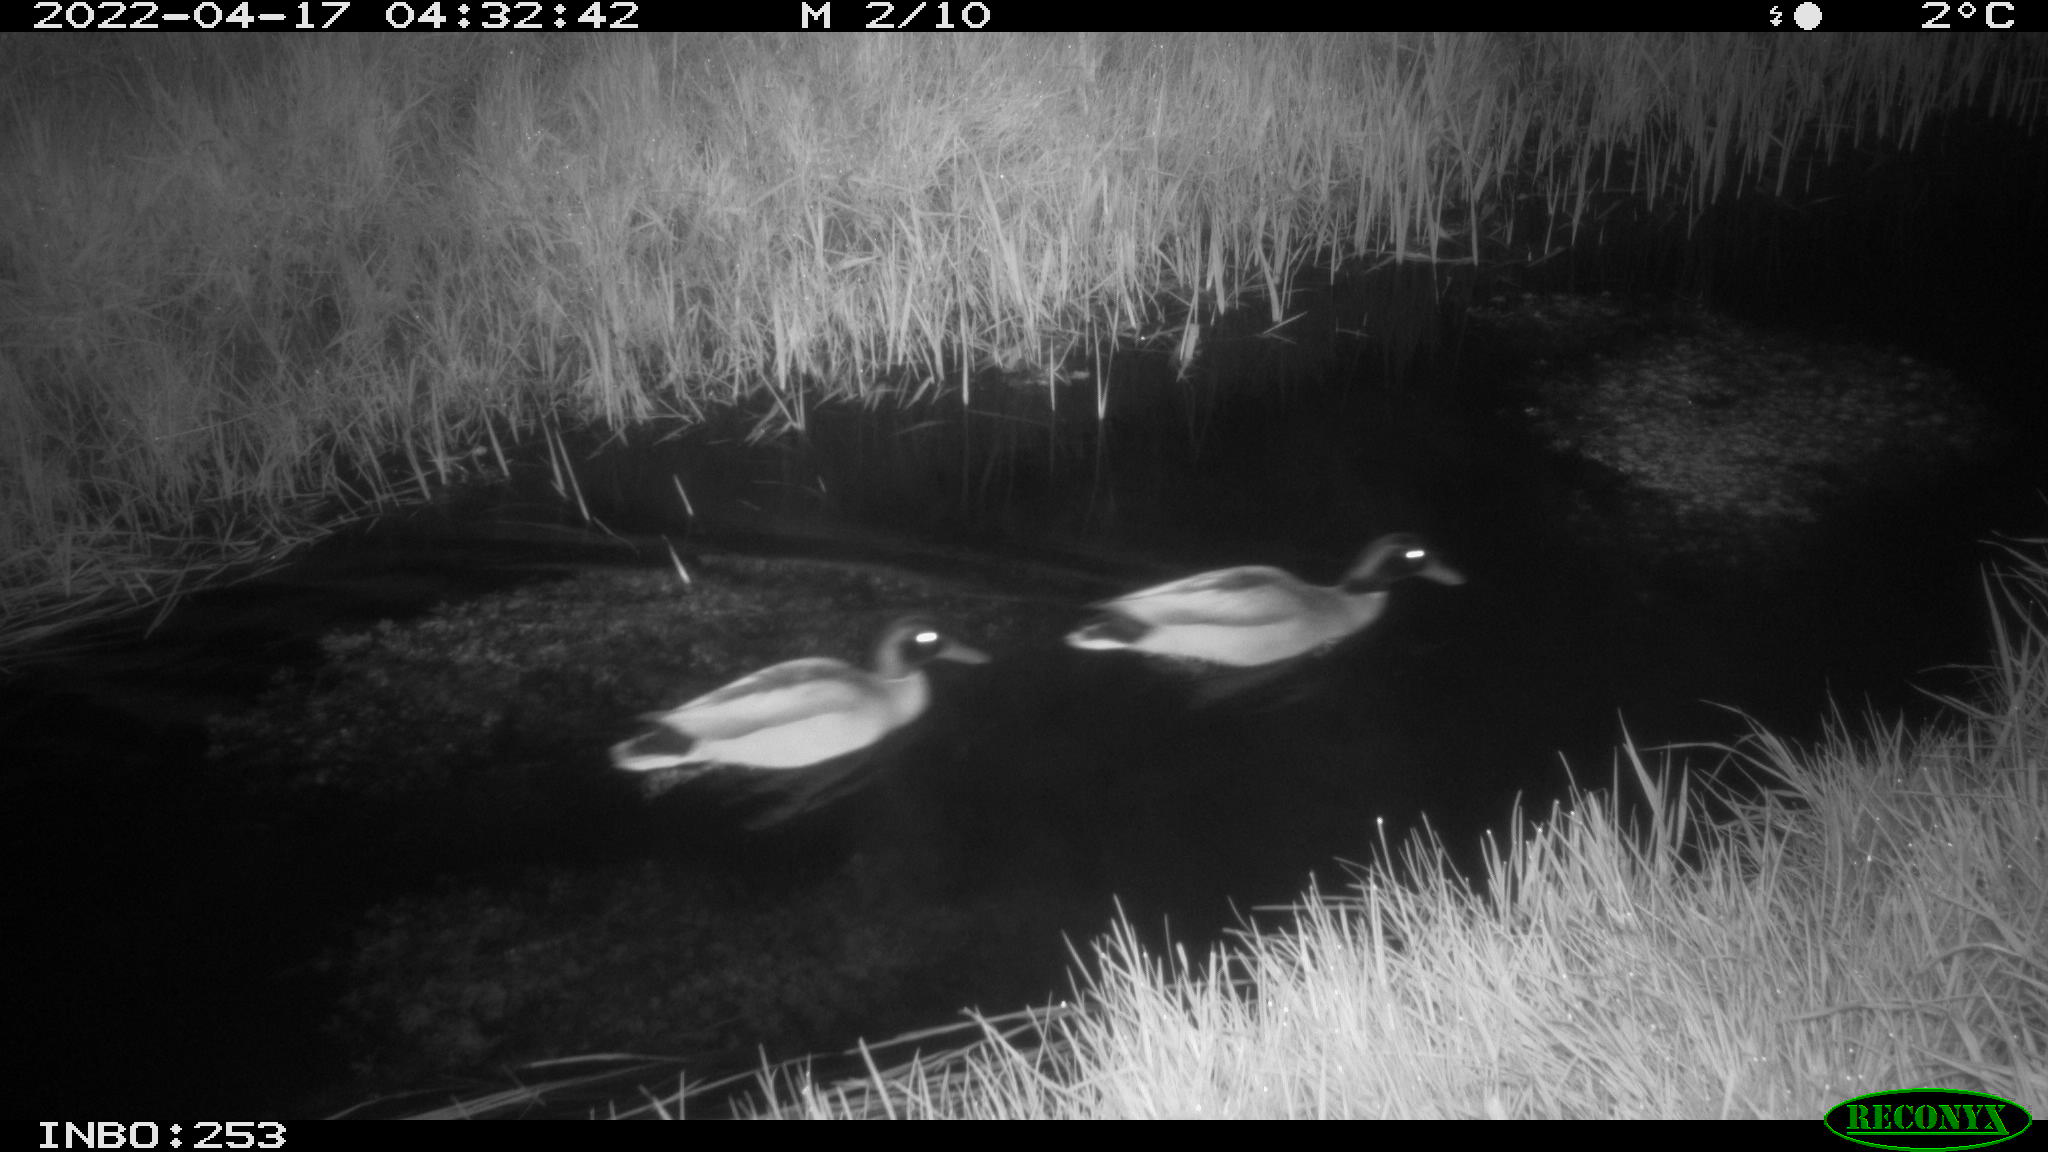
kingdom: Animalia
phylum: Chordata
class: Aves
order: Anseriformes
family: Anatidae
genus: Anas
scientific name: Anas platyrhynchos
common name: Mallard
